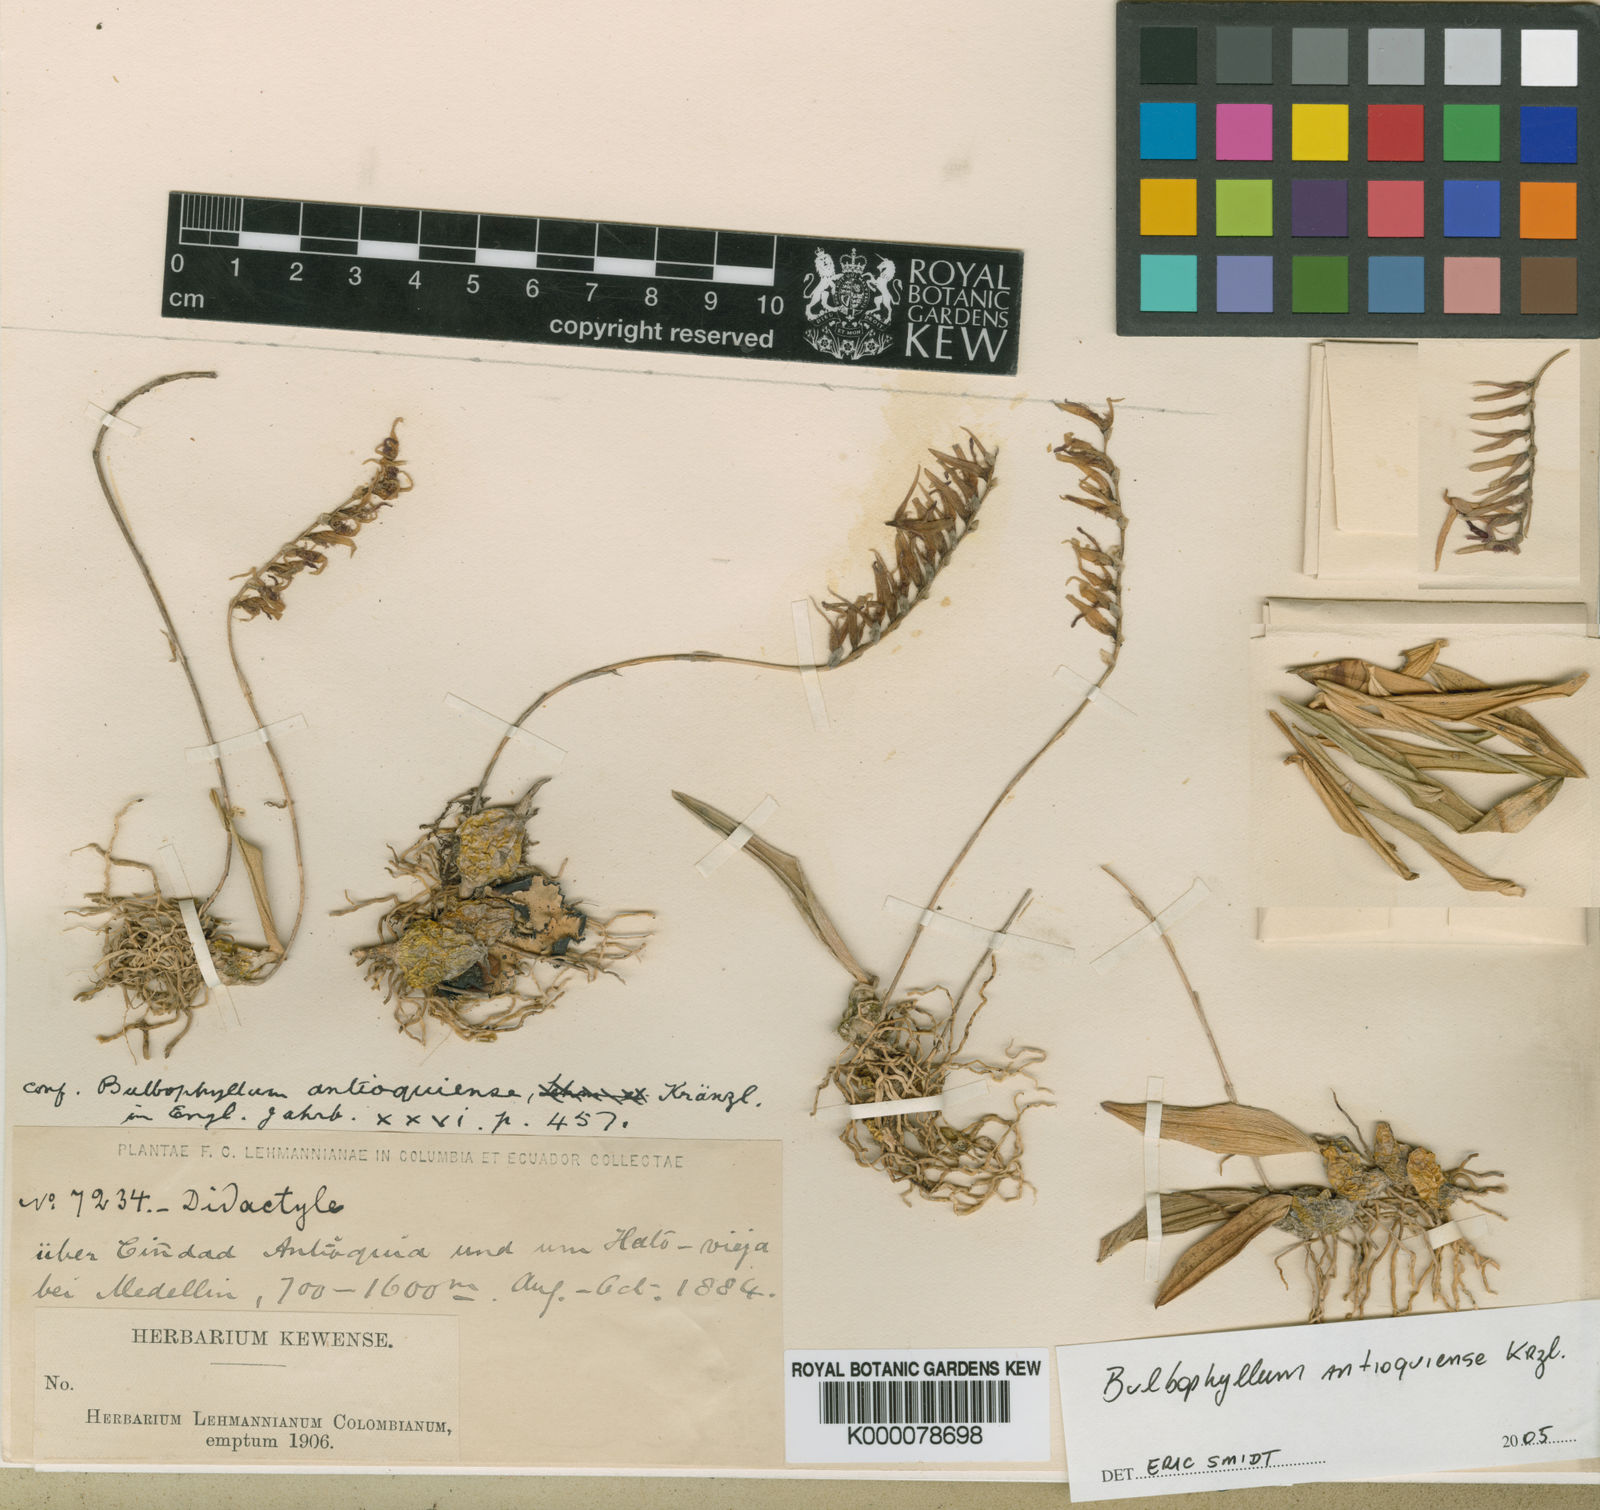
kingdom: Plantae
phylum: Tracheophyta
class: Liliopsida
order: Asparagales
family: Orchidaceae
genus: Bulbophyllum
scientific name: Bulbophyllum antioquiense
